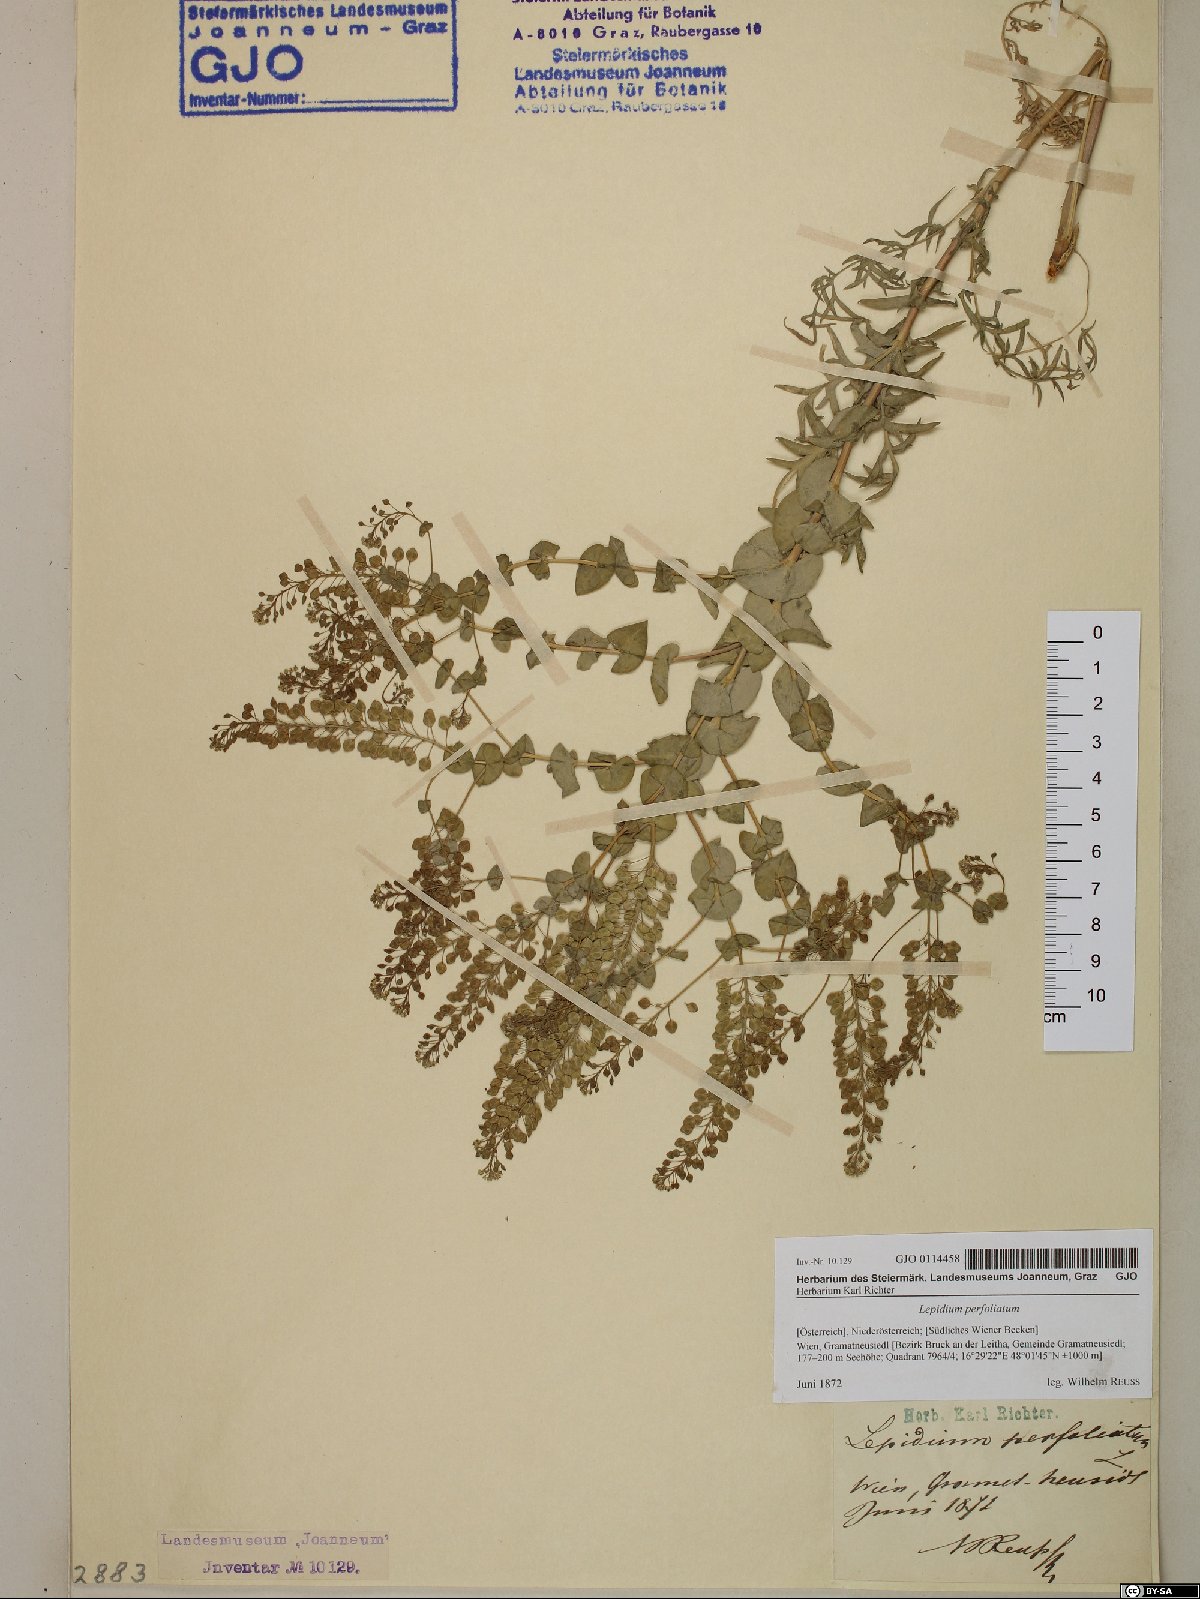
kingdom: Plantae
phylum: Tracheophyta
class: Magnoliopsida
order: Brassicales
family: Brassicaceae
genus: Lepidium
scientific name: Lepidium perfoliatum
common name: Perfoliate pepperwort
